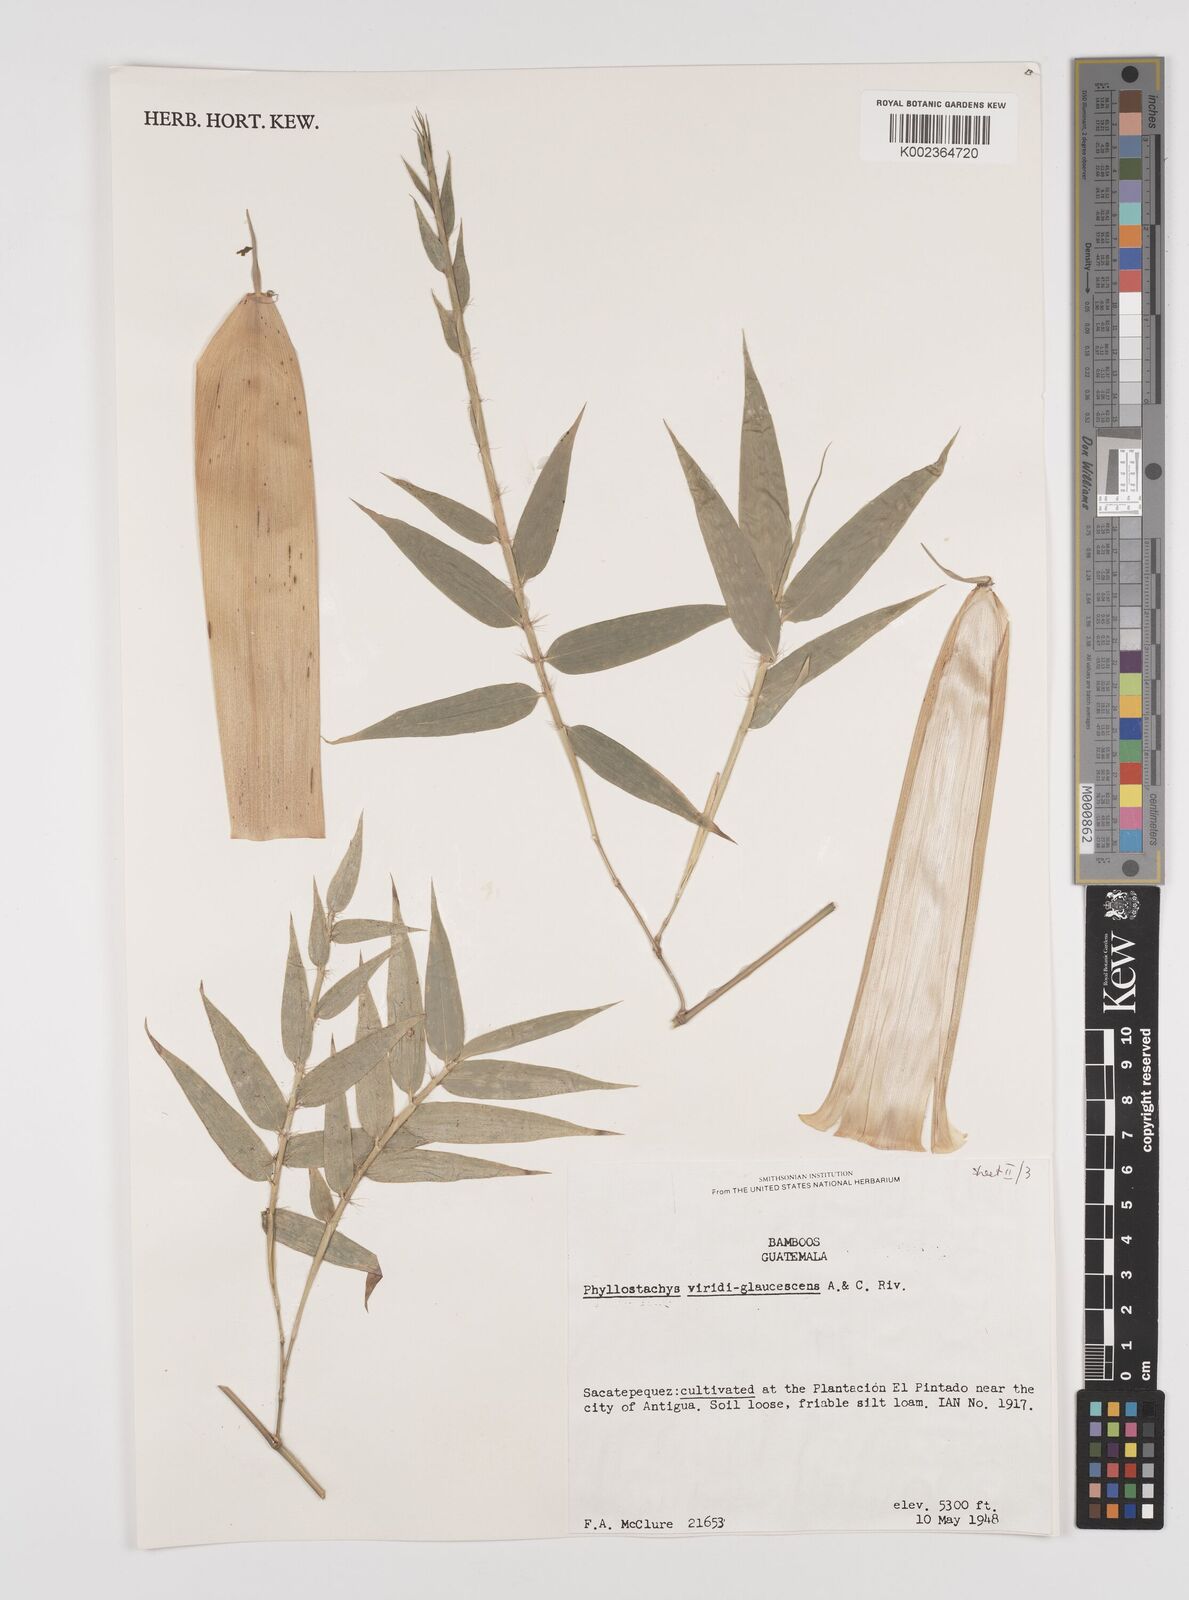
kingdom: Plantae
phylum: Tracheophyta
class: Liliopsida
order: Poales
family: Poaceae
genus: Phyllostachys
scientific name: Phyllostachys viridiglaucescens
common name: Greenwax golden bamboo
